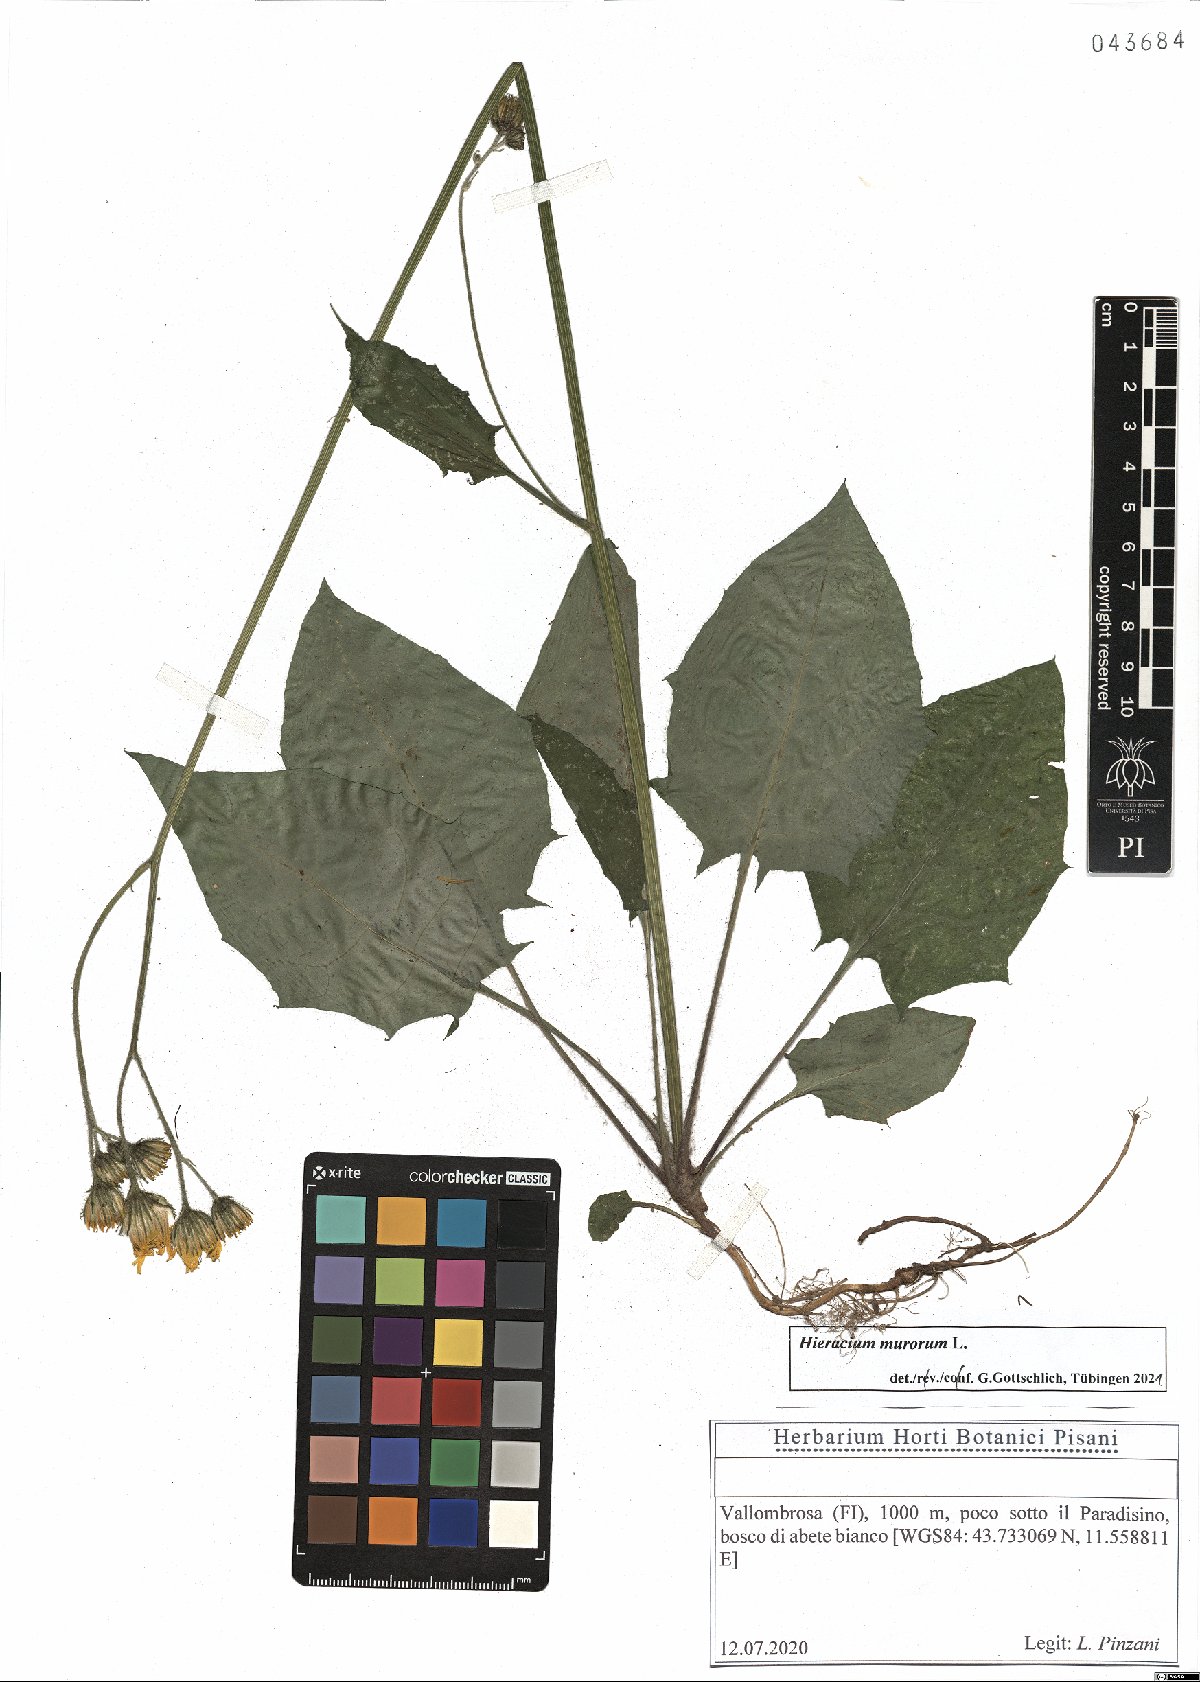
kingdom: Plantae
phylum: Tracheophyta
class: Magnoliopsida
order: Asterales
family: Asteraceae
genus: Hieracium
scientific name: Hieracium murorum
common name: Wall hawkweed
